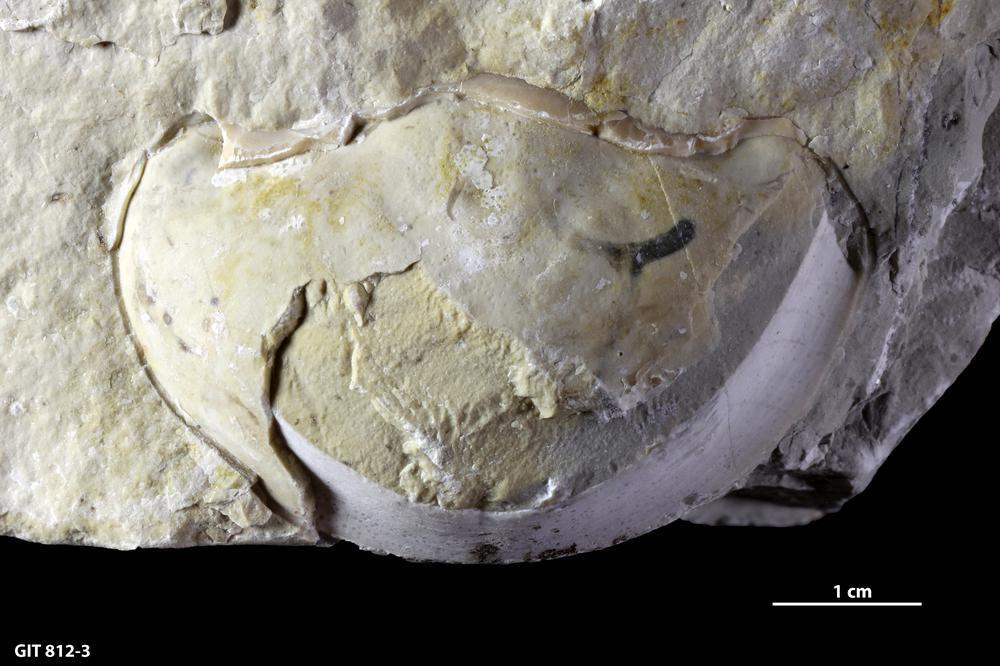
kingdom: Animalia
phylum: Arthropoda
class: Trilobita
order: Corynexochida
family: Illaenidae
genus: Parillaenus
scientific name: Parillaenus
